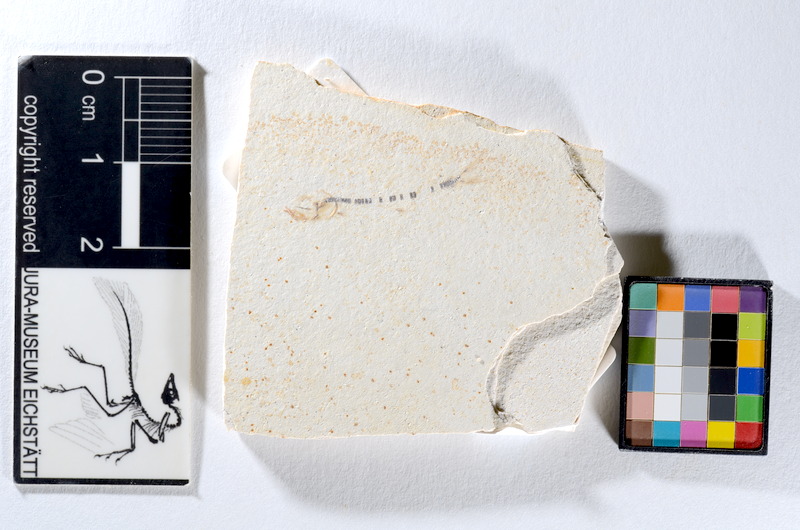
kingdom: Animalia
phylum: Chordata
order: Salmoniformes
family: Orthogonikleithridae
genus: Orthogonikleithrus
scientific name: Orthogonikleithrus hoelli
